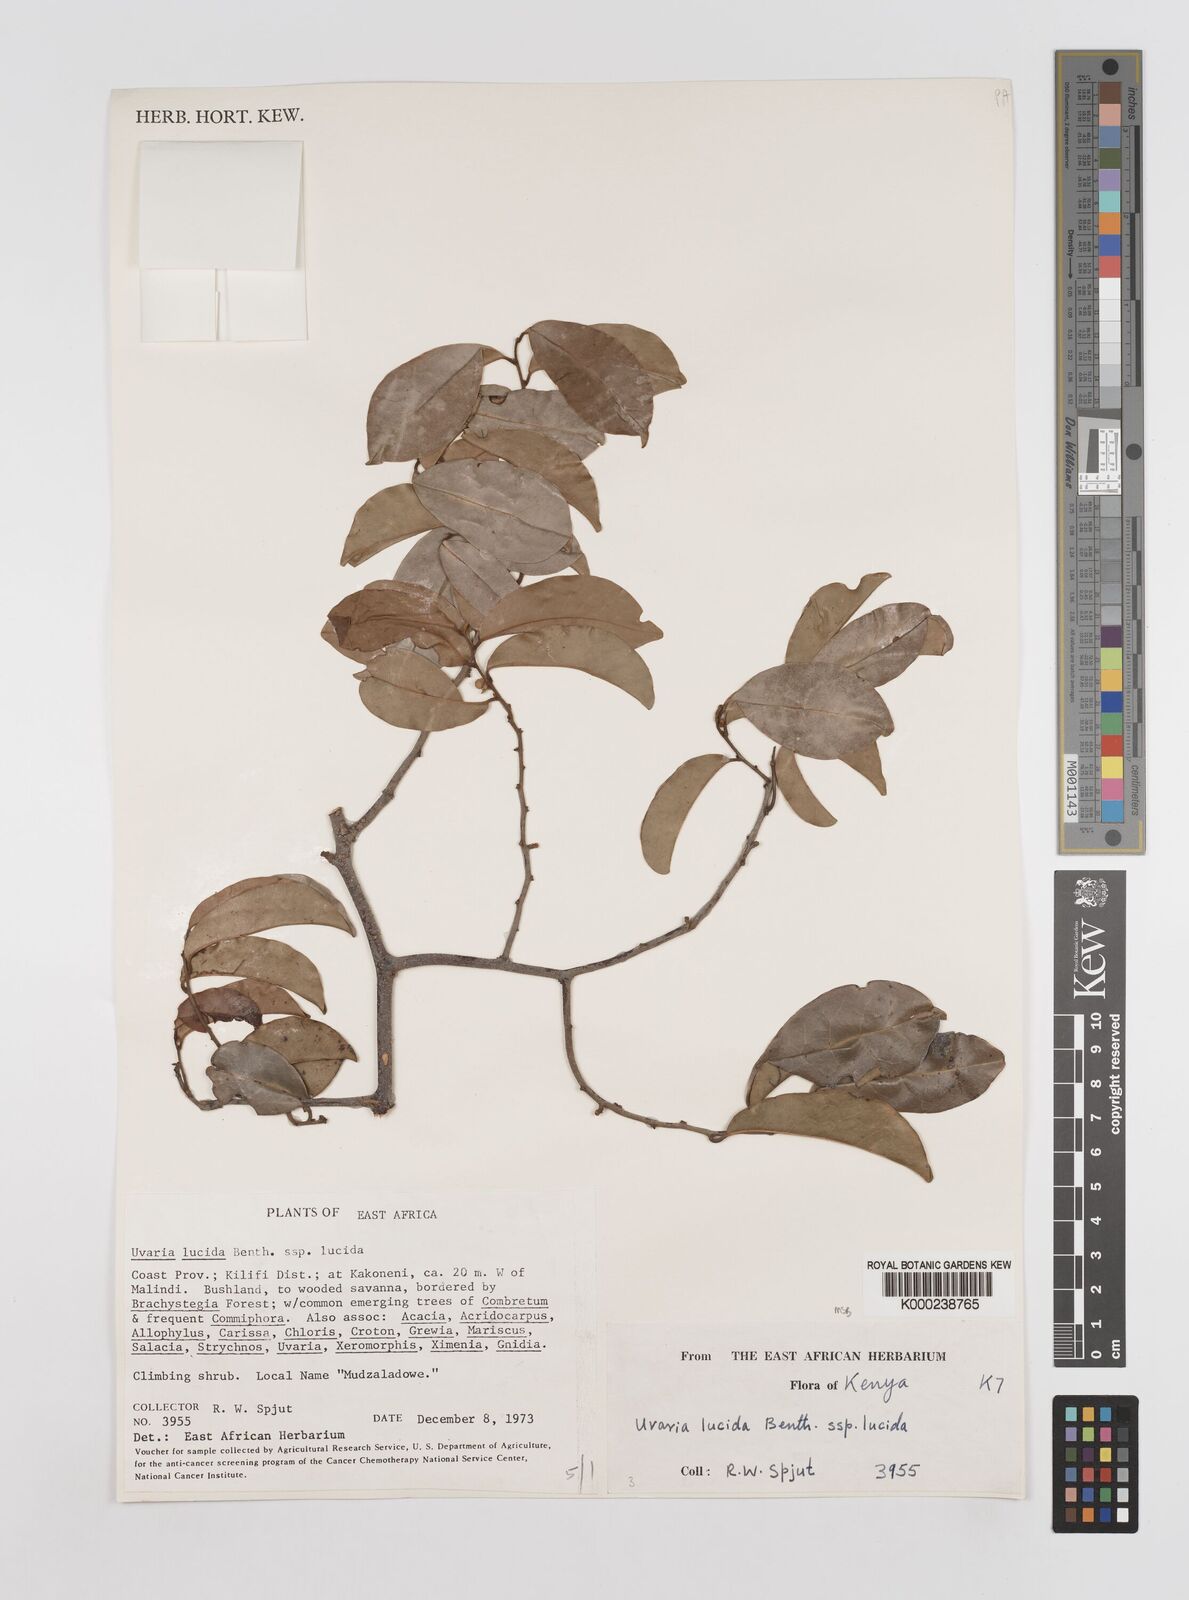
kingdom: Plantae
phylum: Tracheophyta
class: Magnoliopsida
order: Magnoliales
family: Annonaceae
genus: Uvaria
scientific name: Uvaria lucida
